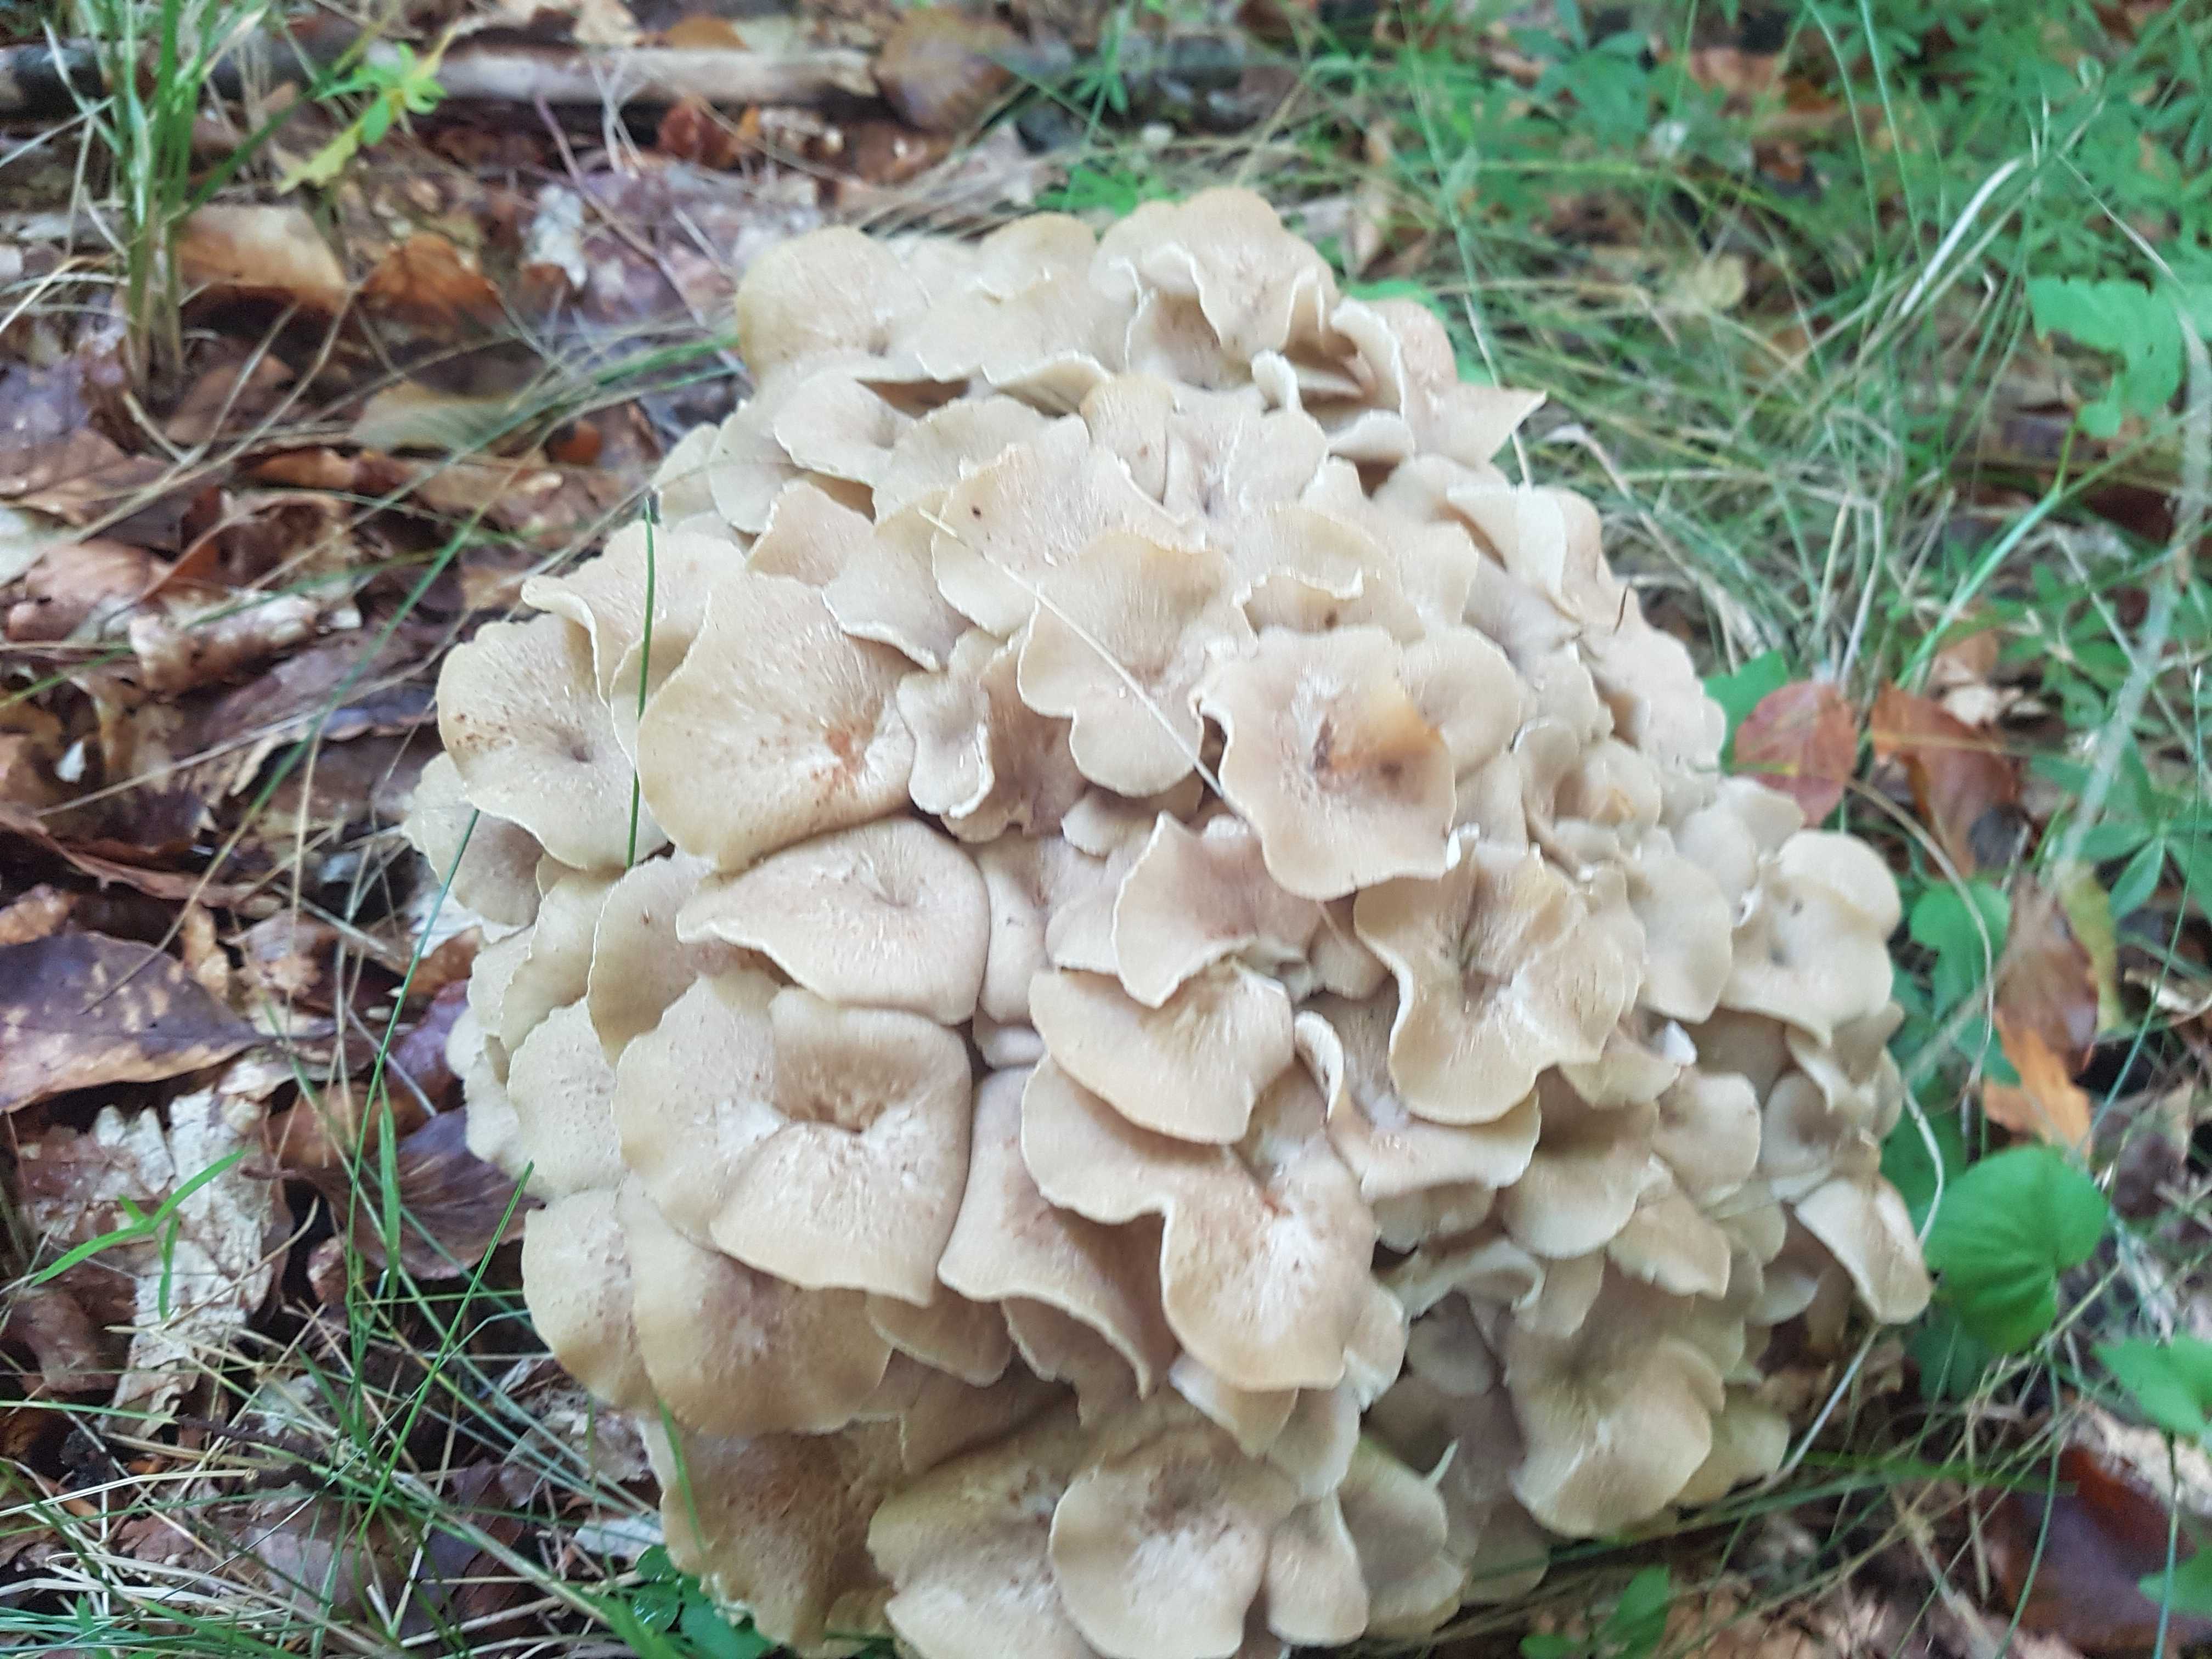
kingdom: Fungi
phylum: Basidiomycota
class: Agaricomycetes
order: Polyporales
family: Polyporaceae
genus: Polyporus
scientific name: Polyporus umbellatus
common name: skærmformet stilkporesvamp
